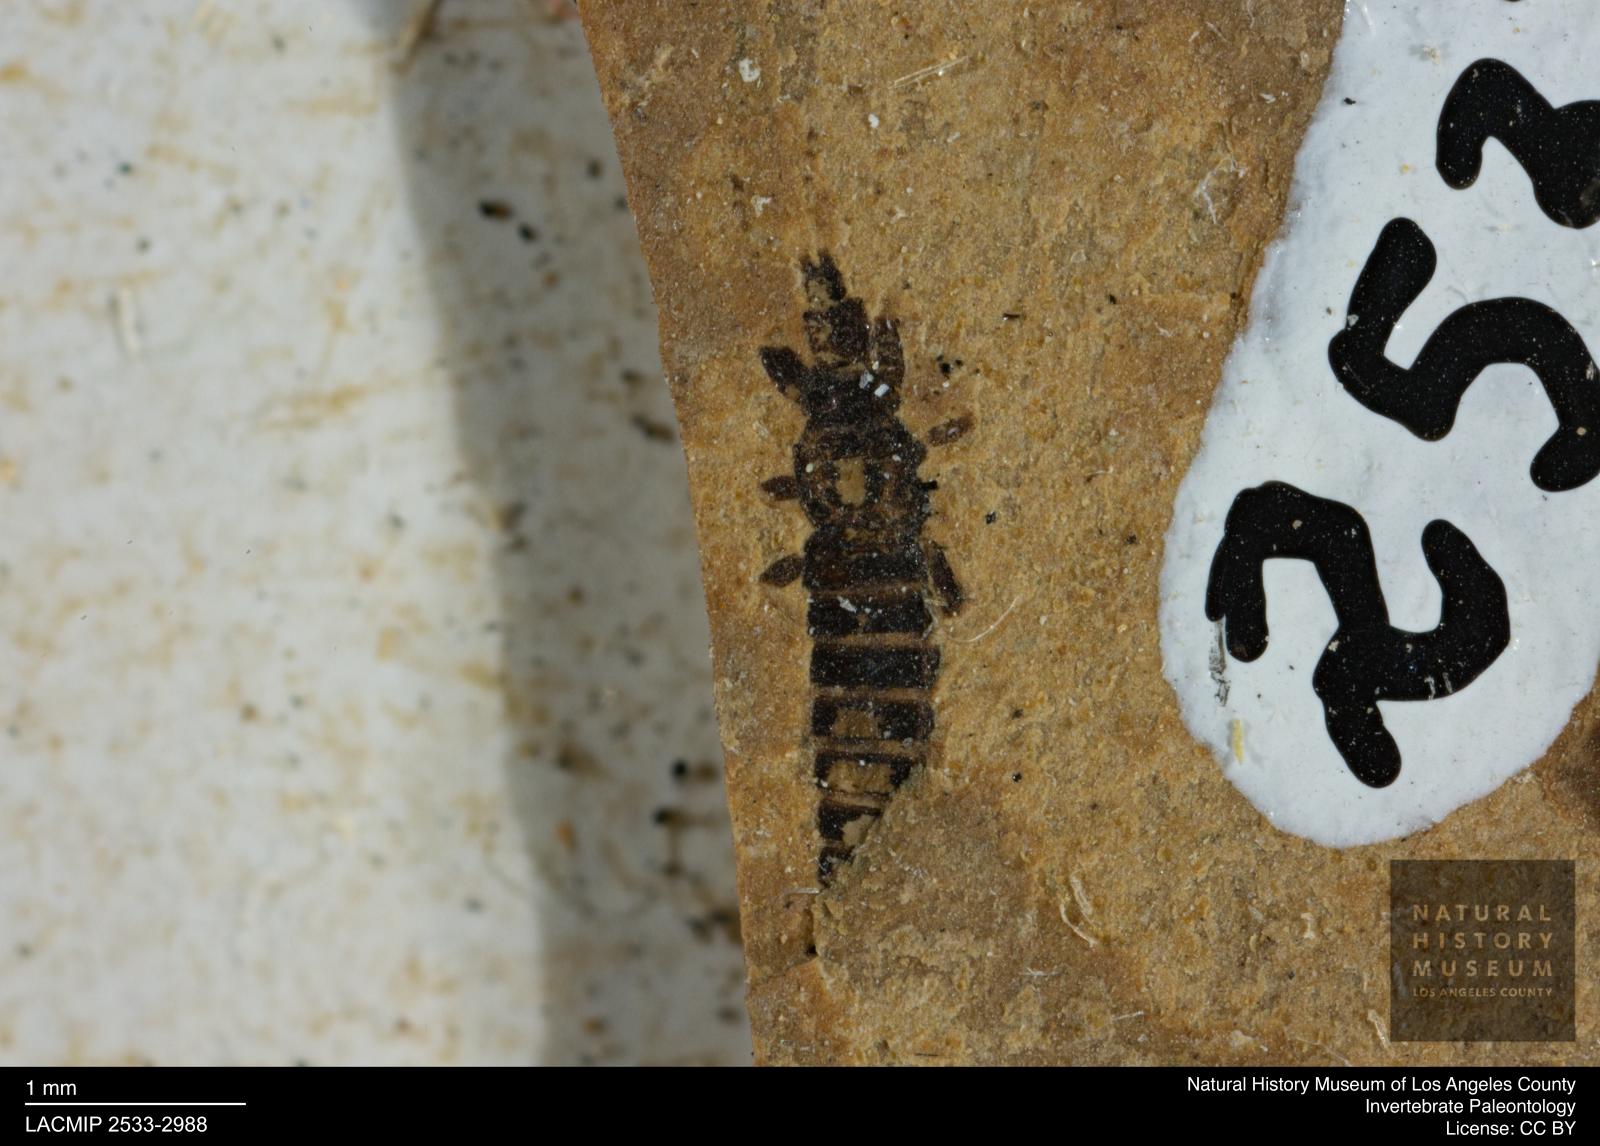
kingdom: Animalia
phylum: Arthropoda
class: Insecta
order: Thysanoptera
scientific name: Thysanoptera
